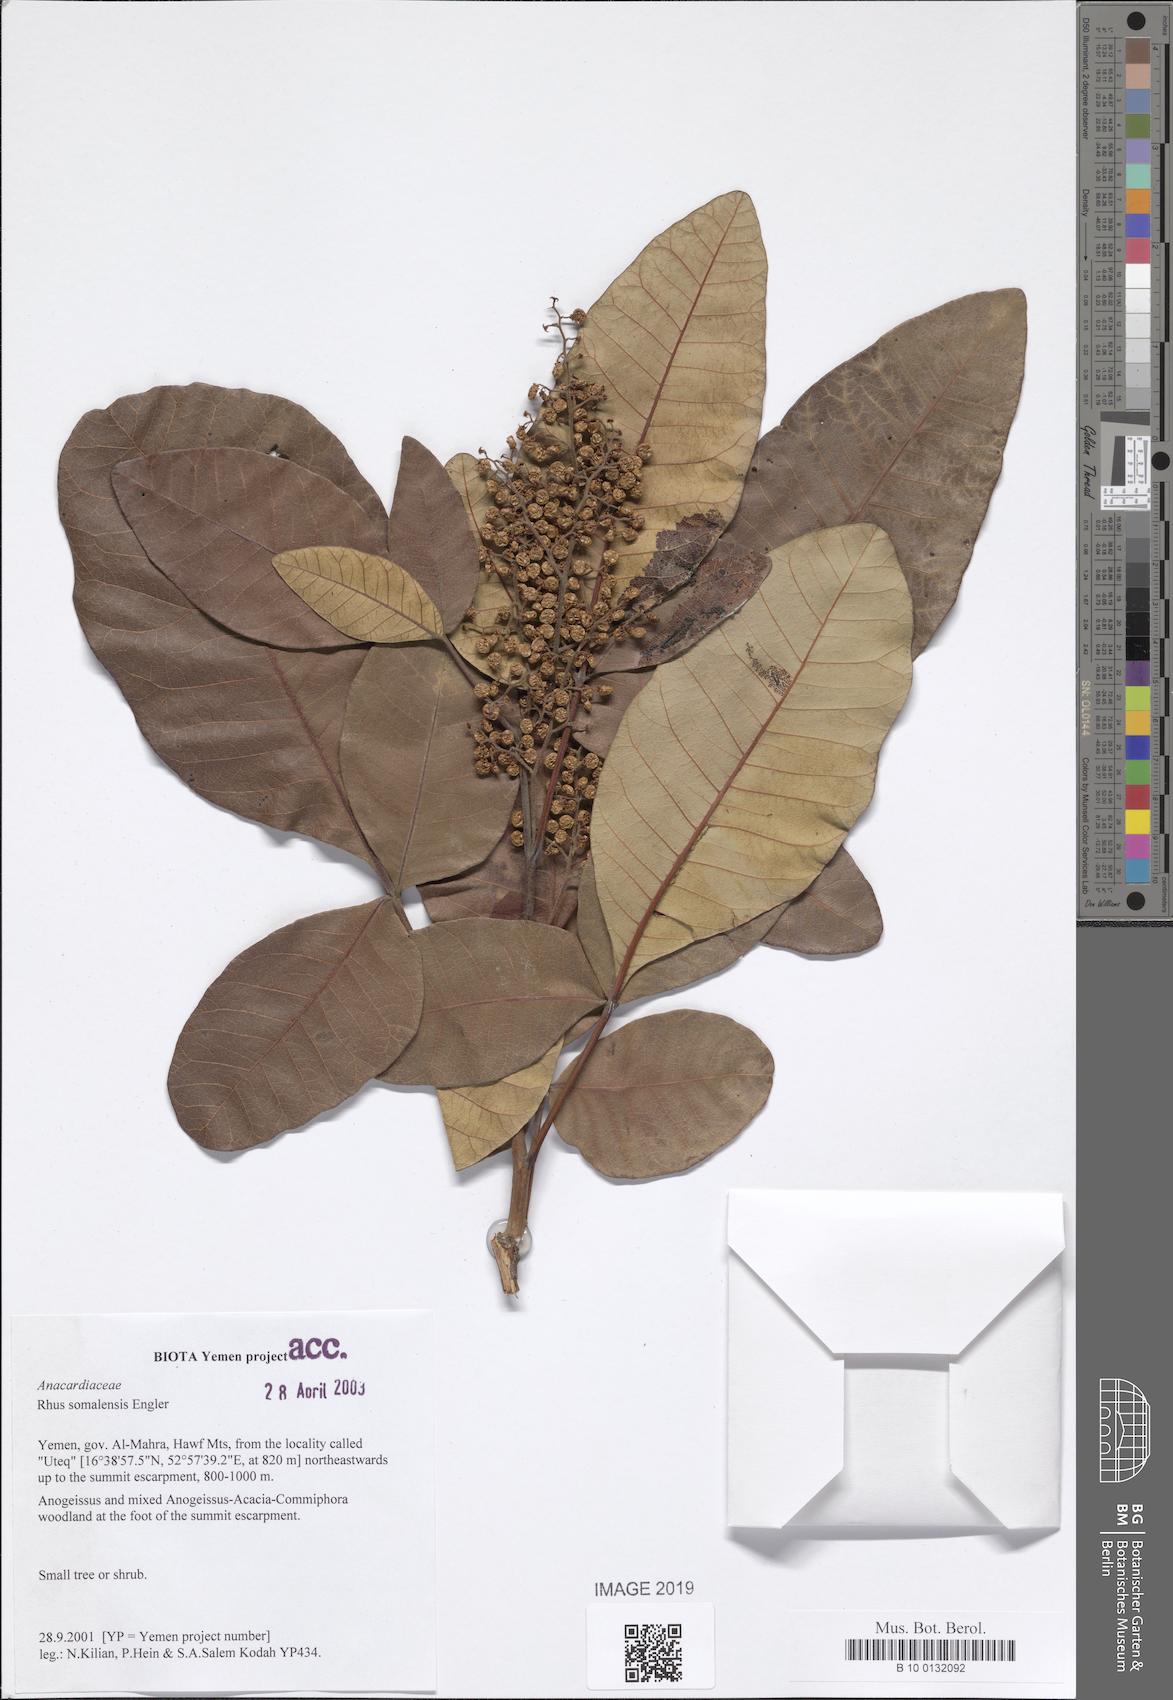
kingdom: Plantae
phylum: Tracheophyta
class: Magnoliopsida
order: Sapindales
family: Anacardiaceae
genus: Searsia
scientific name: Searsia somalensis
